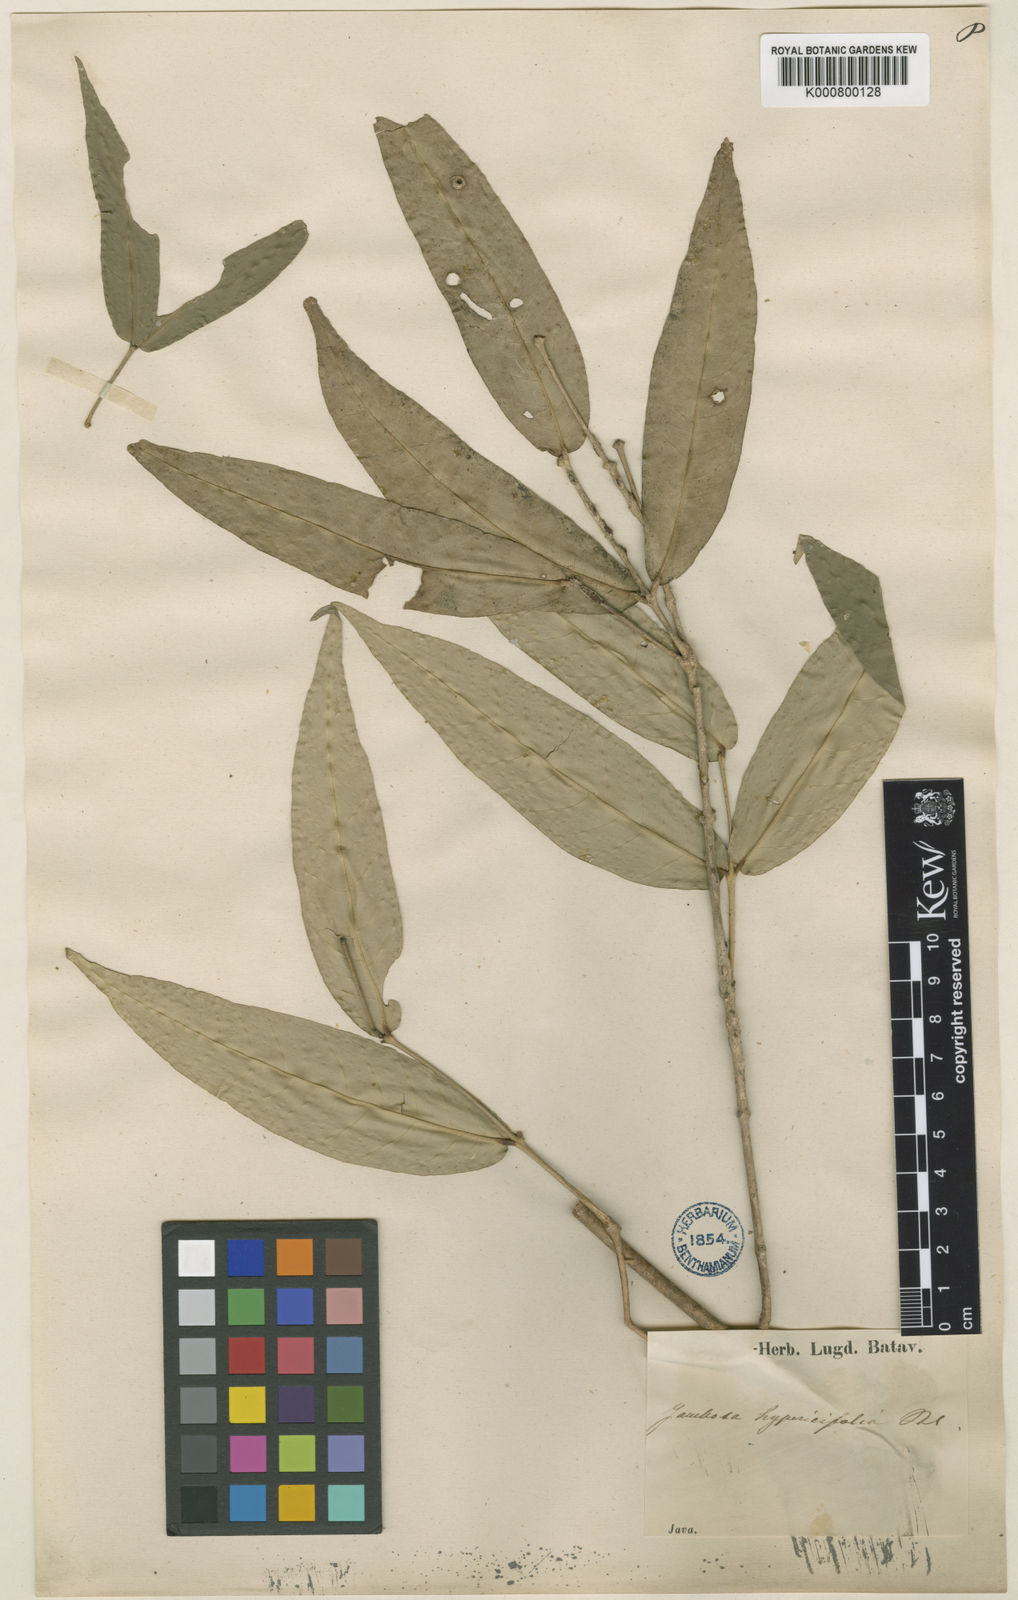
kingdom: Plantae
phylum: Tracheophyta
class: Magnoliopsida
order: Myrtales
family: Myrtaceae
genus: Myrtus
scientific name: Myrtus hypericifolia
